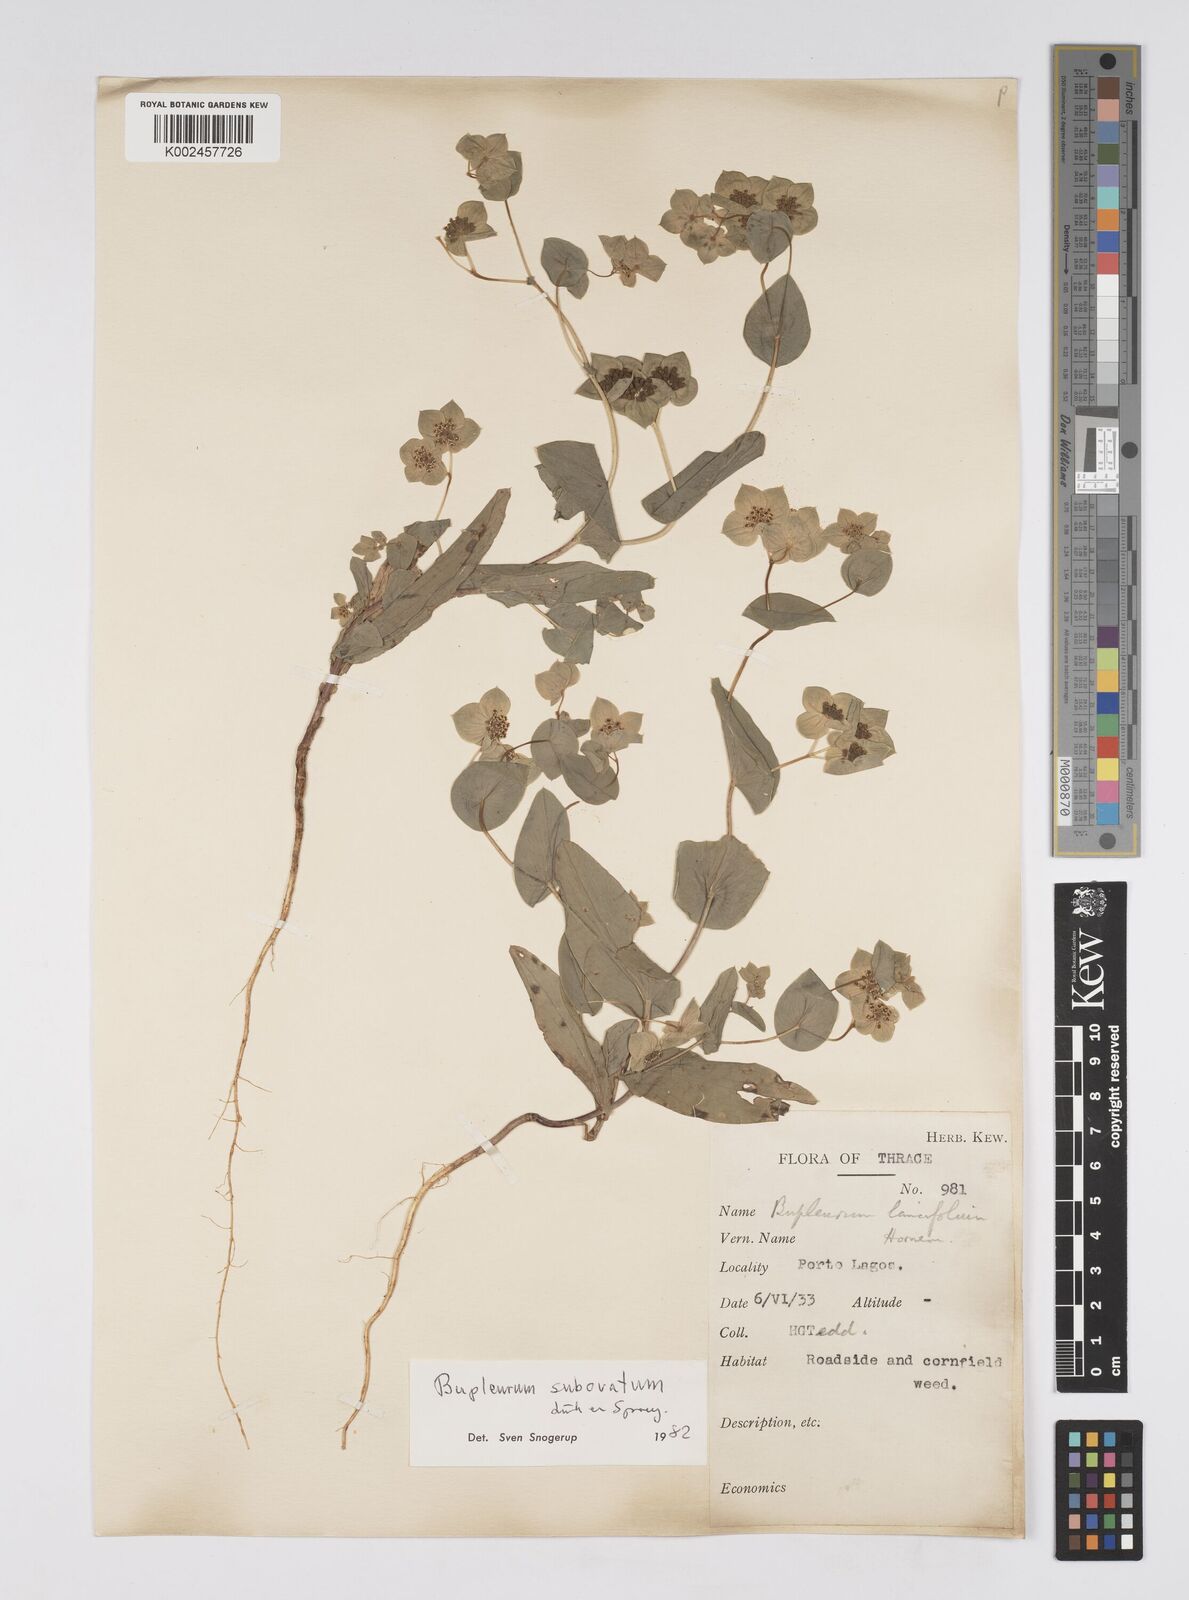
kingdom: Plantae
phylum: Tracheophyta
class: Magnoliopsida
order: Apiales
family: Apiaceae
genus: Bupleurum
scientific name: Bupleurum subovatum
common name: False thorow-wax
